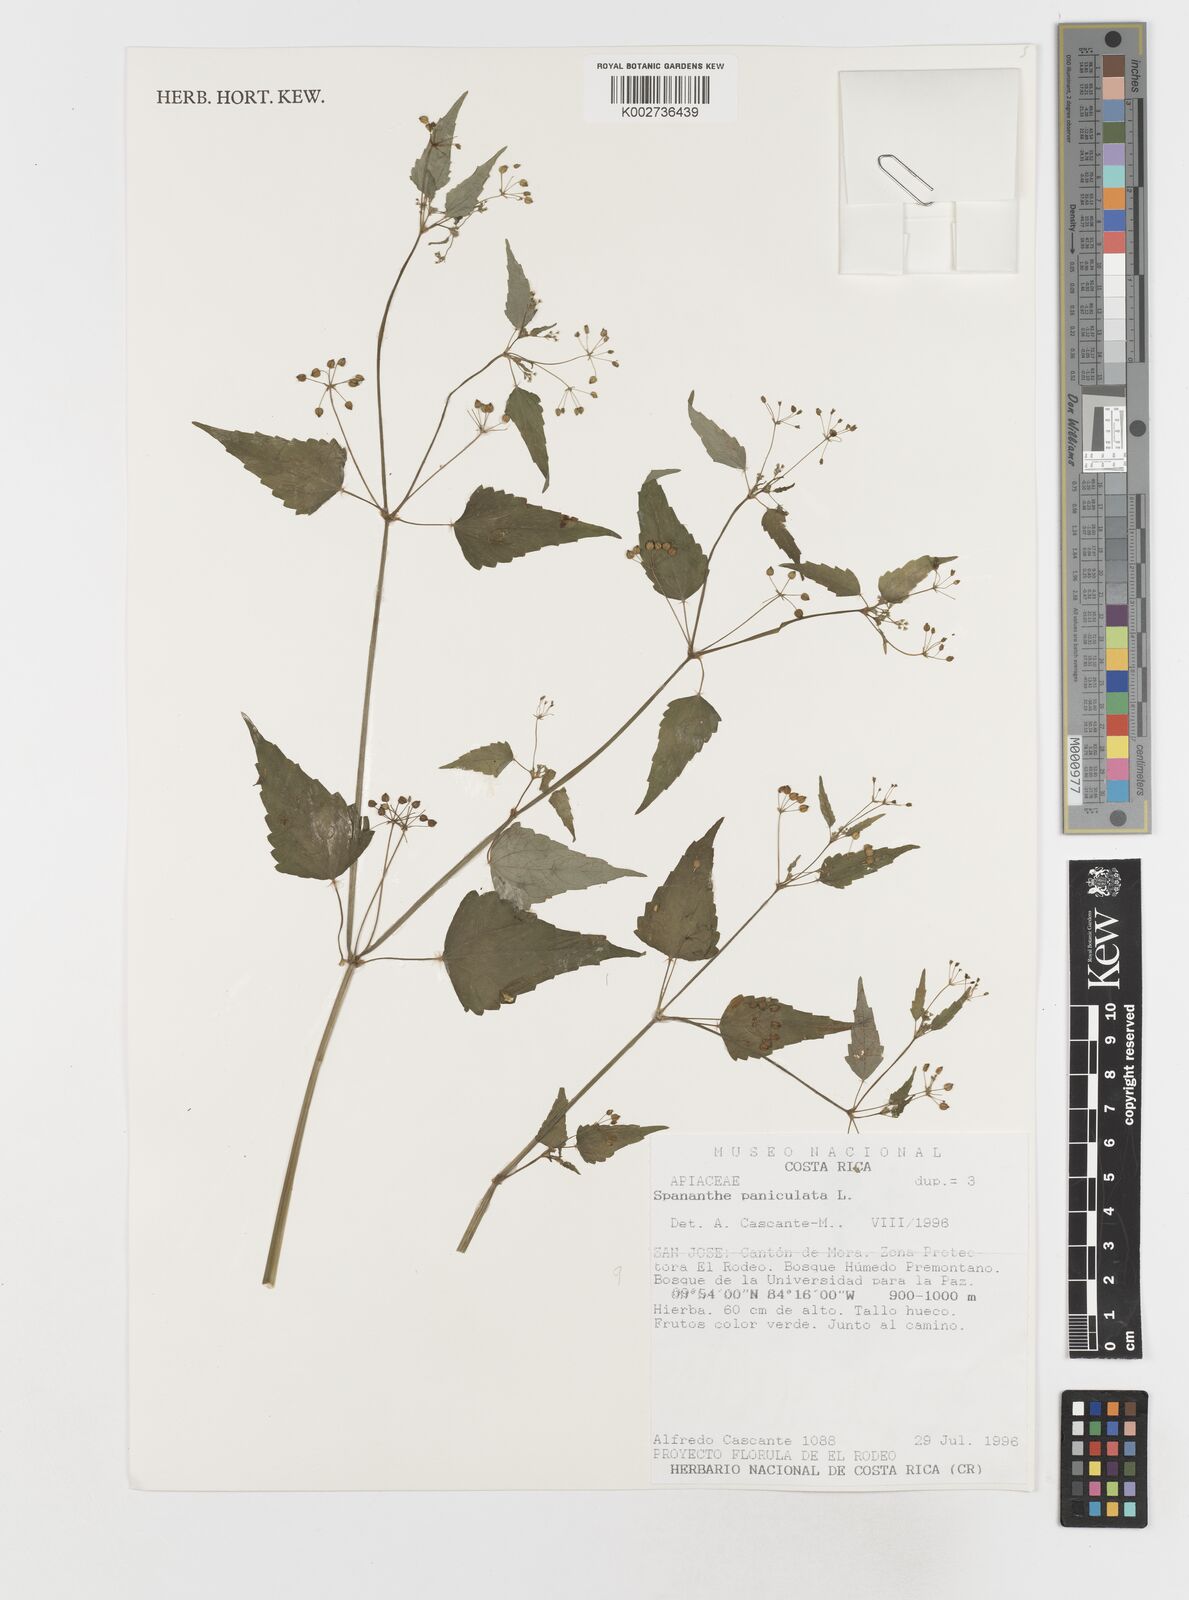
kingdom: Plantae
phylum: Tracheophyta
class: Magnoliopsida
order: Apiales
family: Apiaceae
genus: Spananthe
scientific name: Spananthe paniculata
